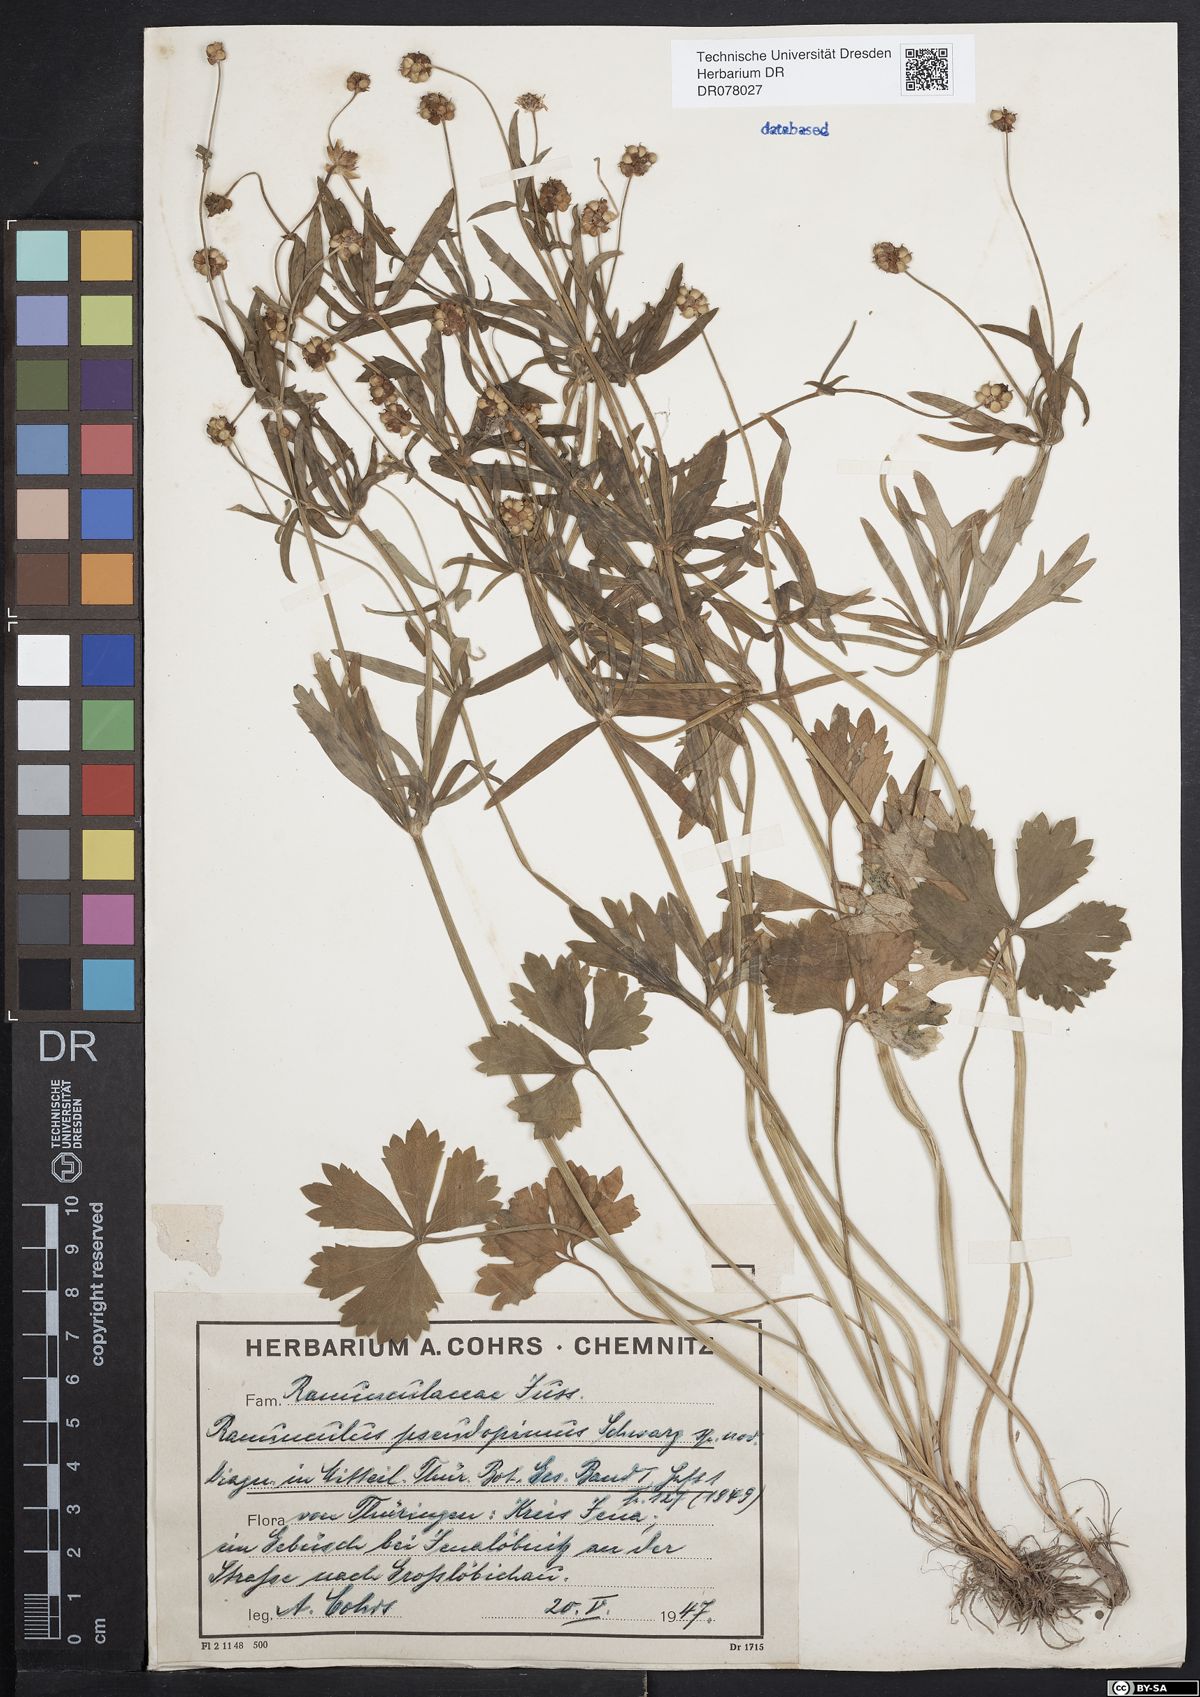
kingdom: Plantae
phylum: Tracheophyta
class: Magnoliopsida
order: Ranunculales
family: Ranunculaceae
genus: Ranunculus
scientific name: Ranunculus auricomus
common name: Goldilocks buttercup
